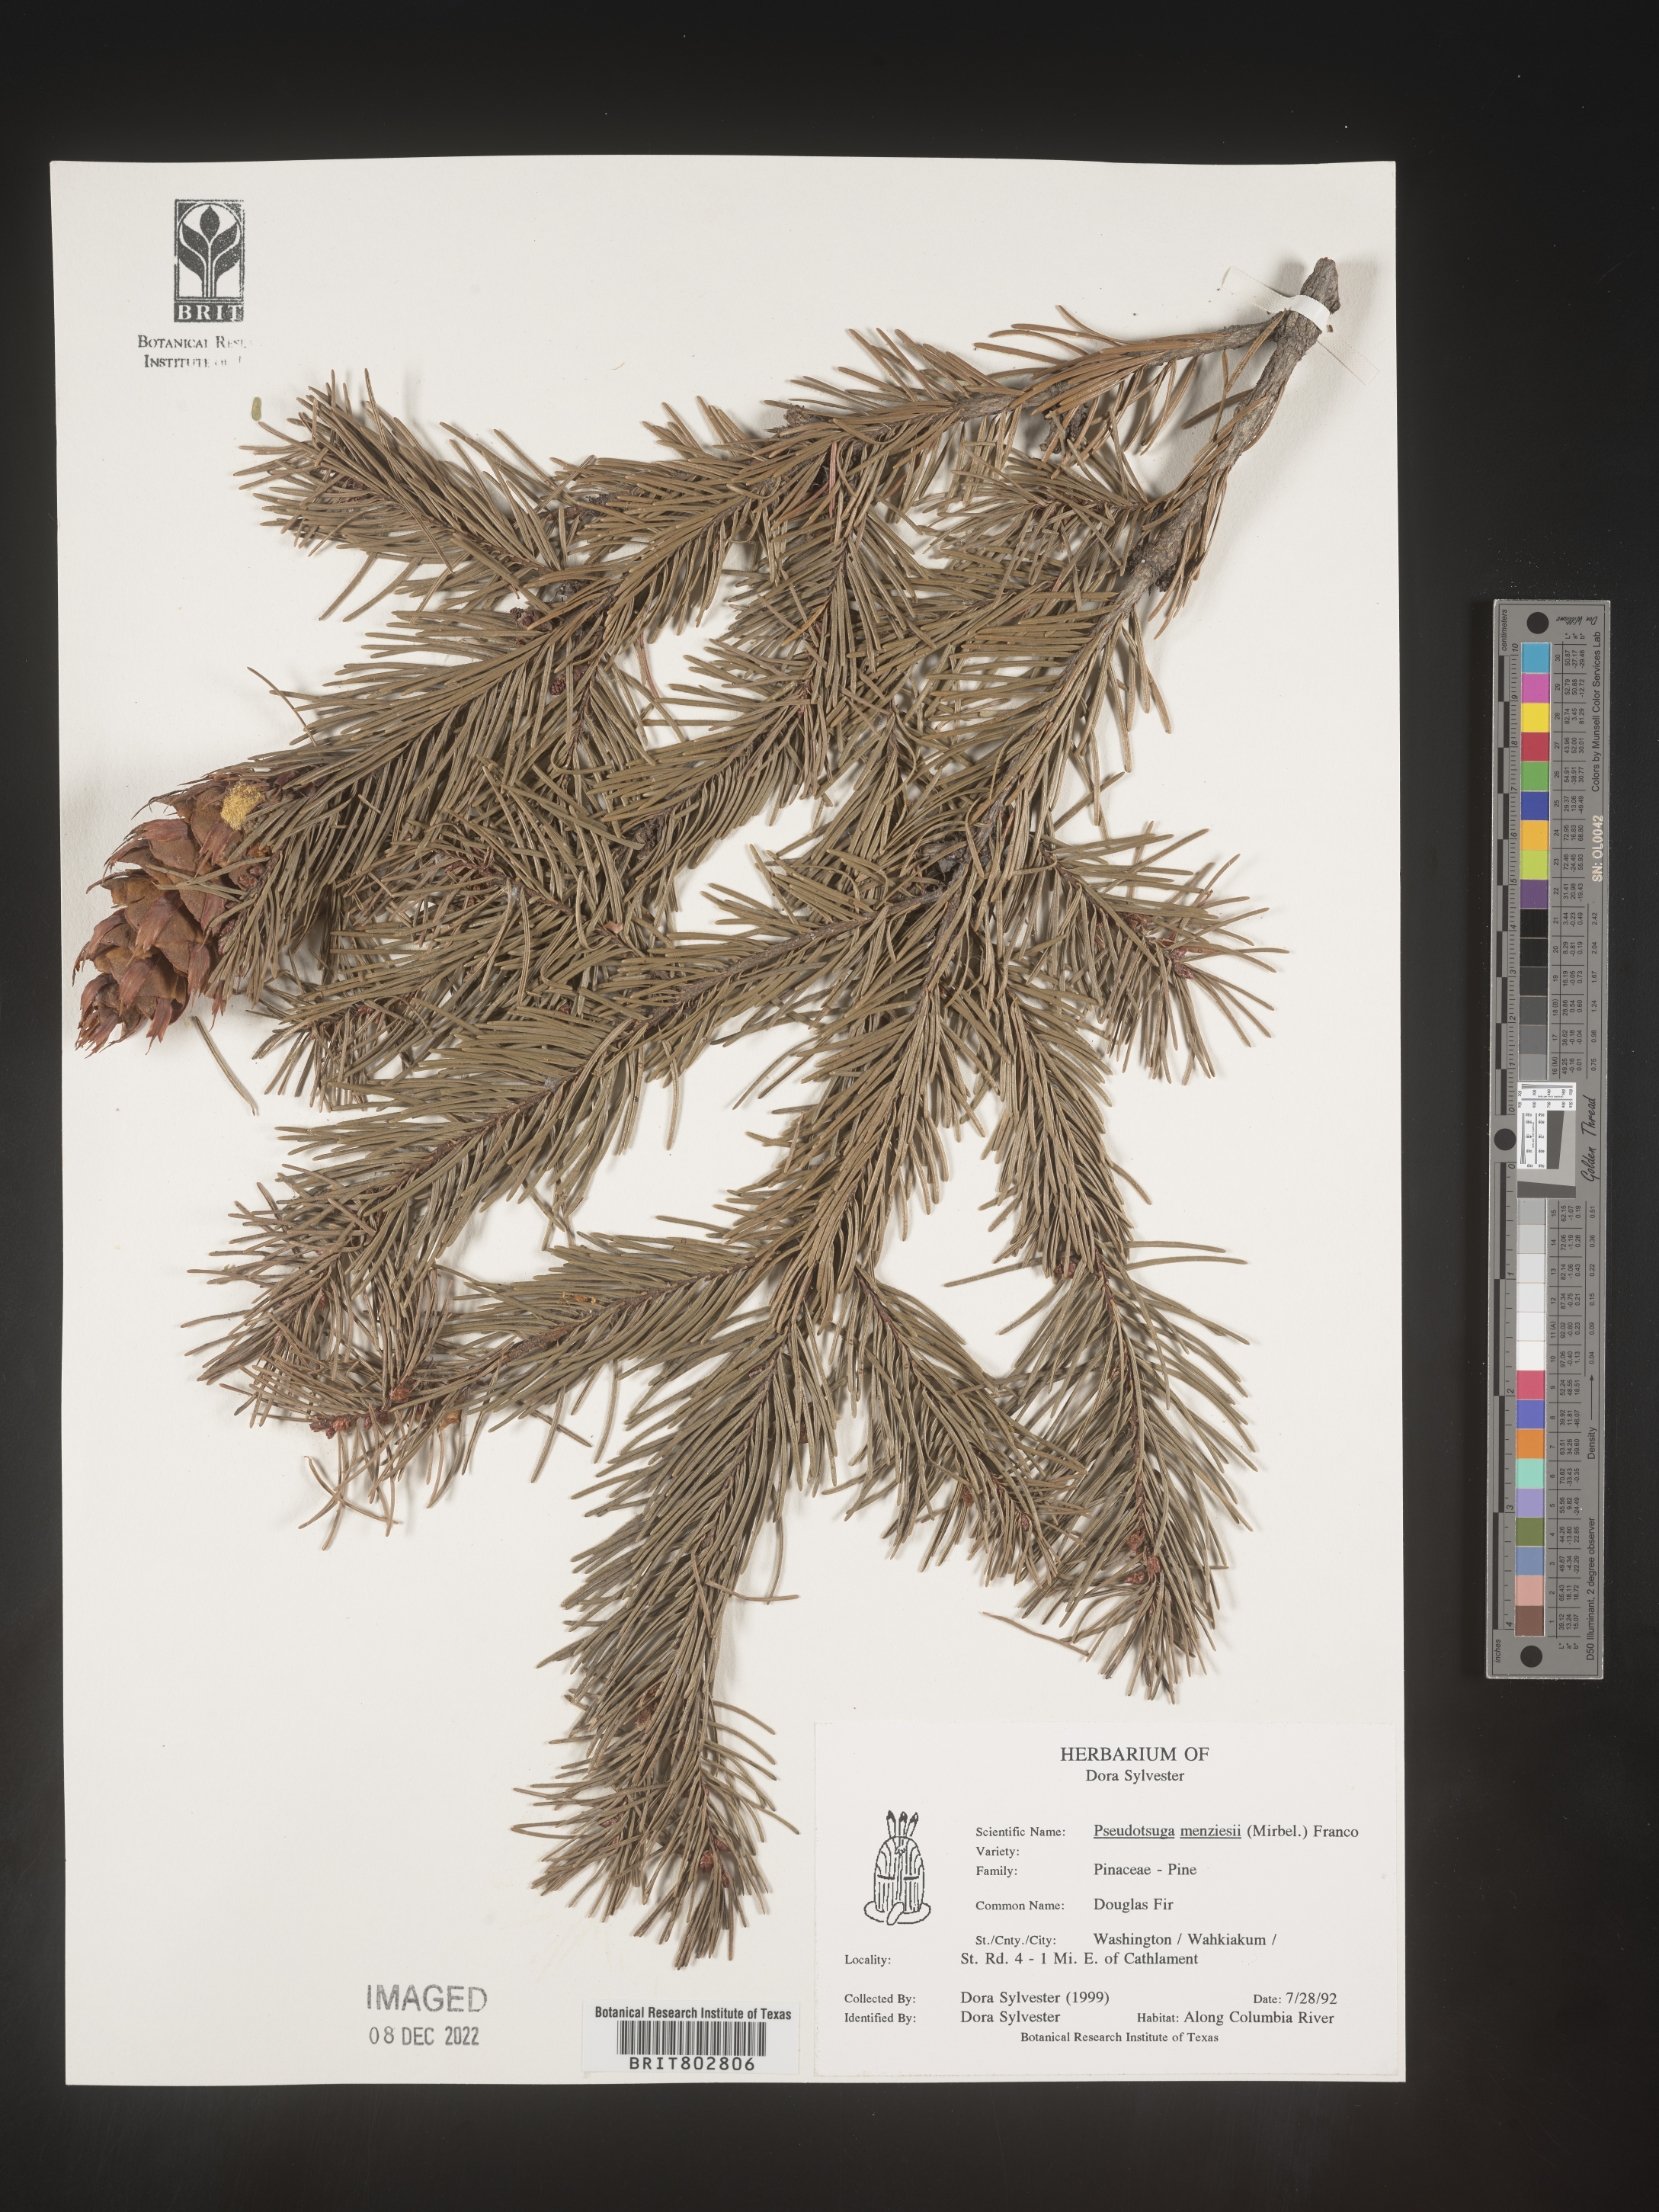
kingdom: Plantae
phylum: Tracheophyta
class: Pinopsida
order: Pinales
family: Pinaceae
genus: Pseudotsuga
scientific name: Pseudotsuga menziesii
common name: Douglas fir
